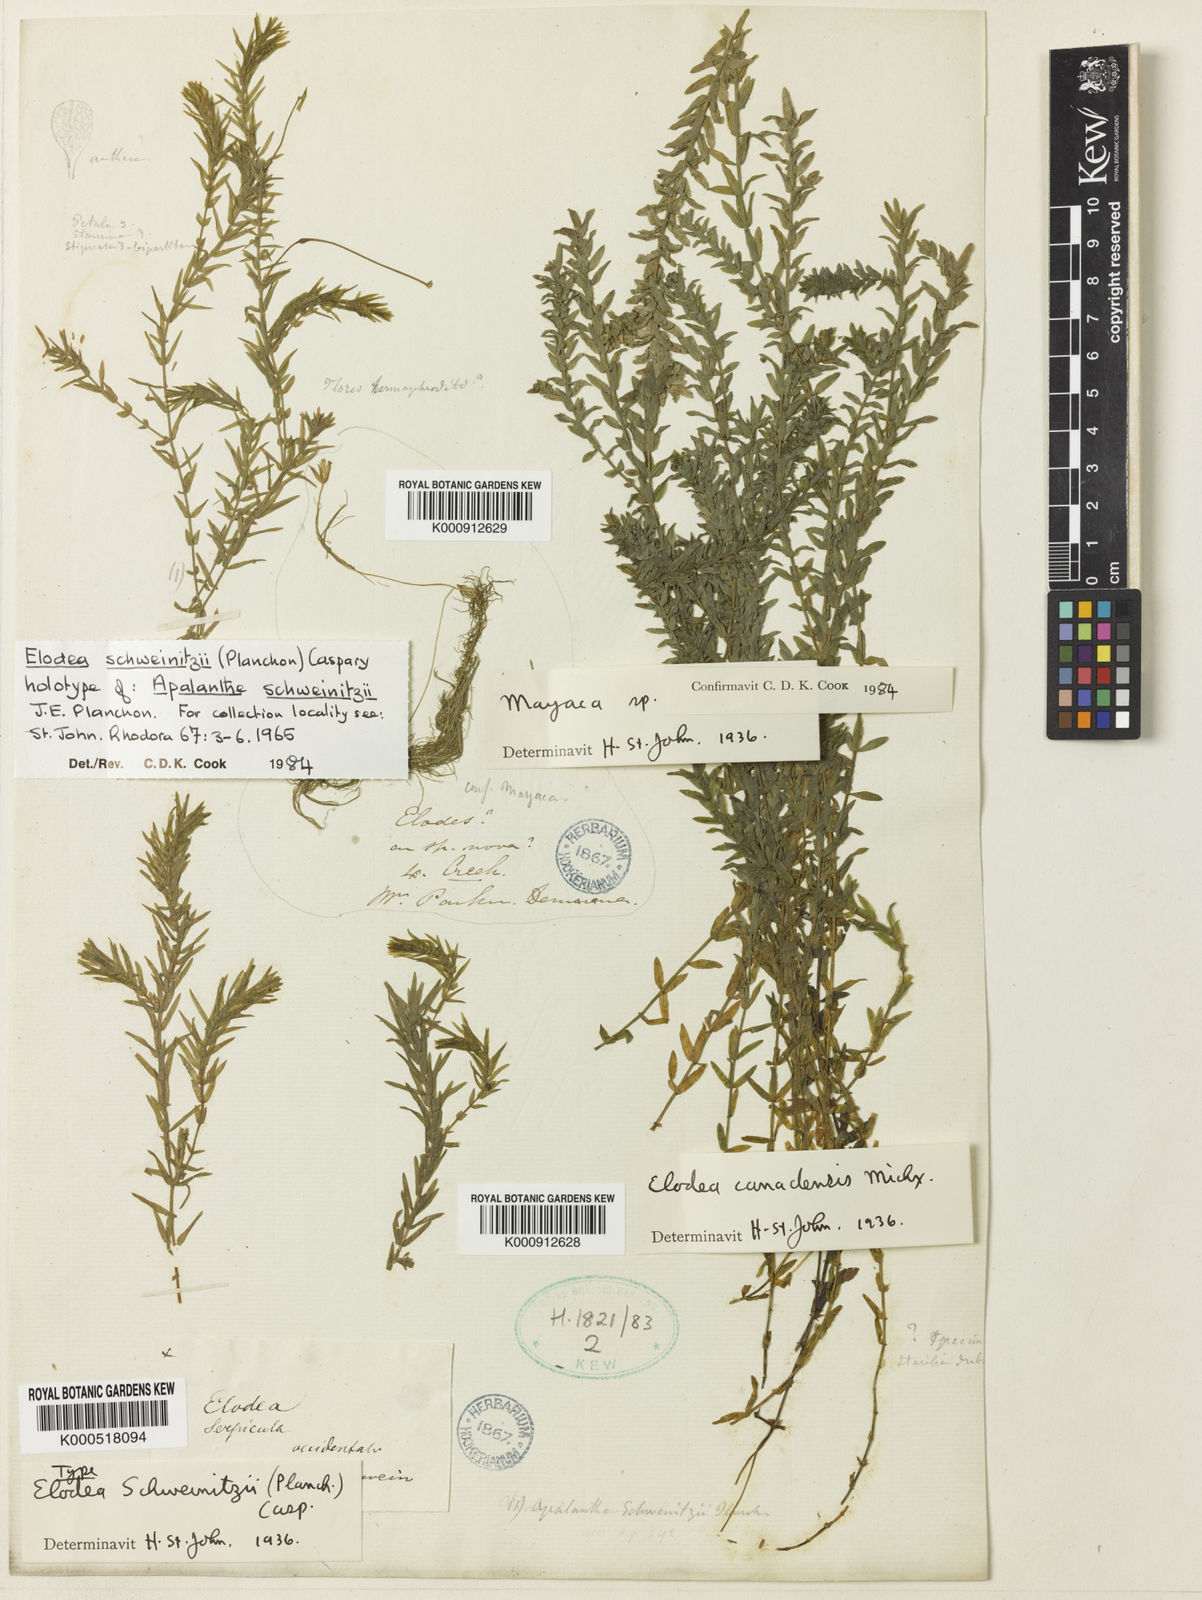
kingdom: Plantae
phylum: Tracheophyta
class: Liliopsida
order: Alismatales
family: Hydrocharitaceae
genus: Elodea
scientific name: Elodea canadensis
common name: Canadian waterweed
